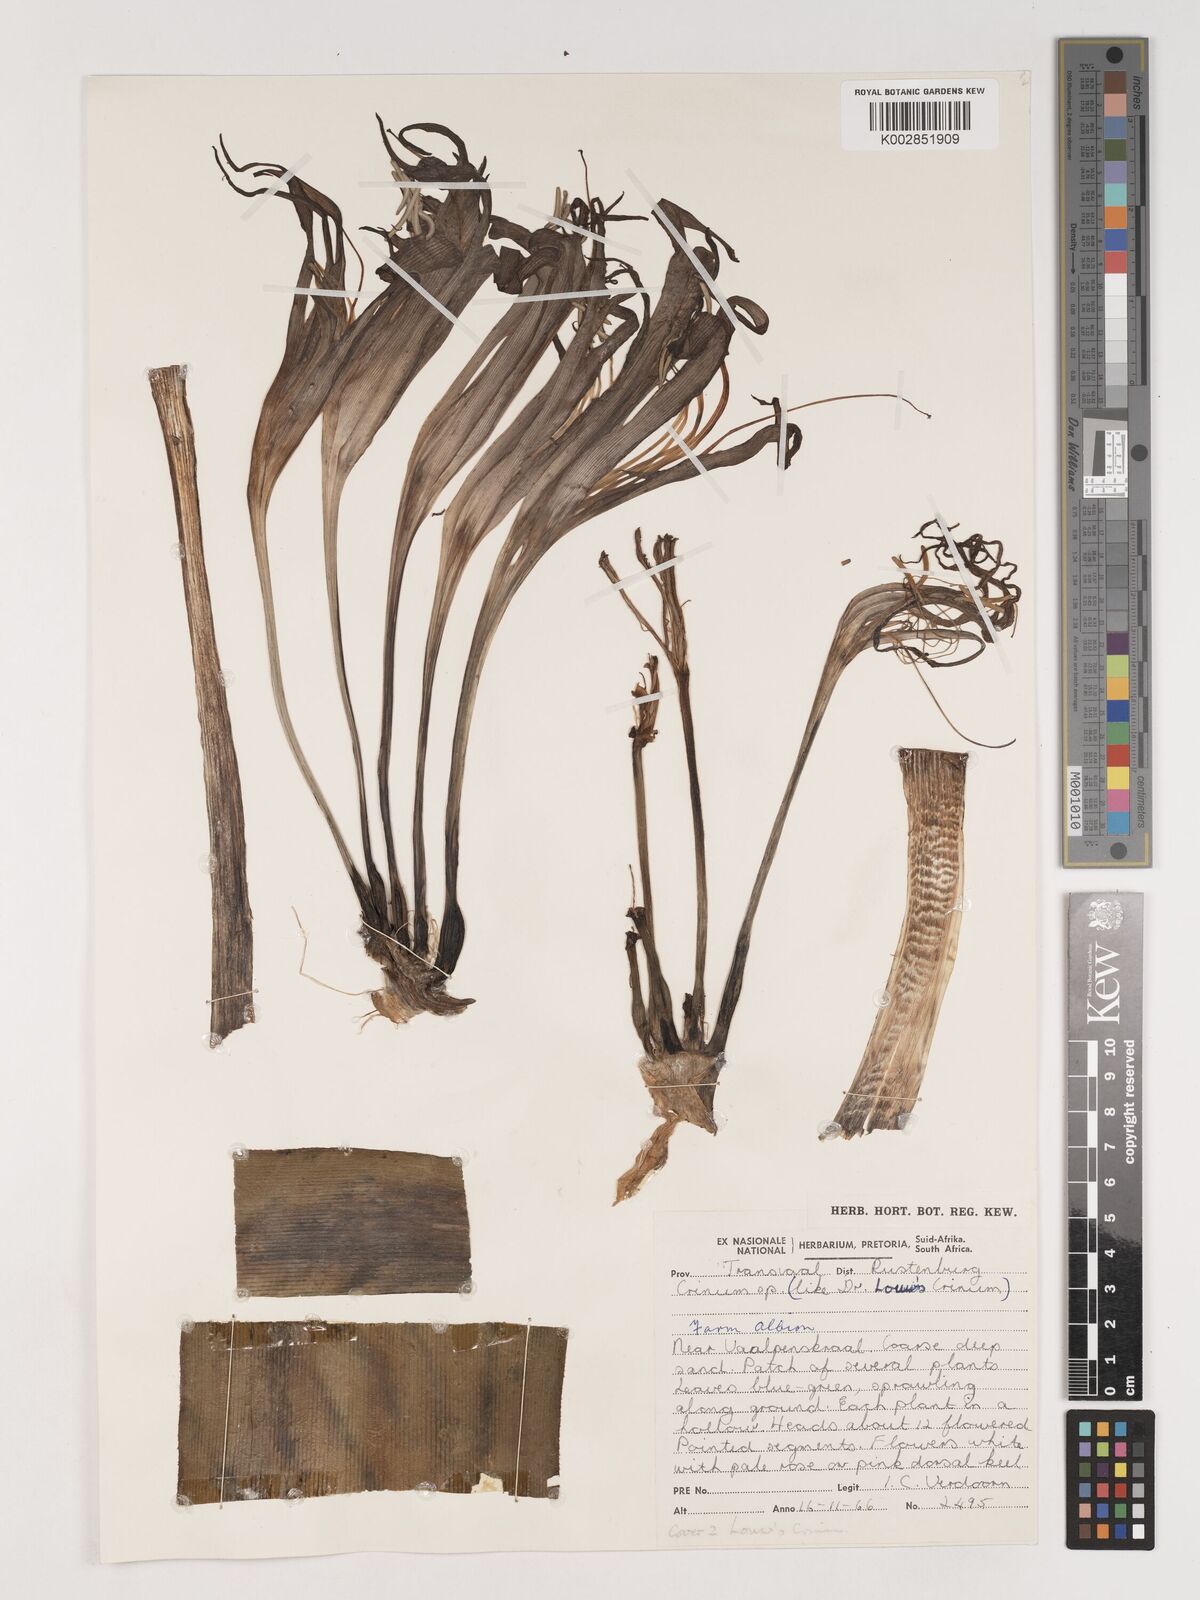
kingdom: Plantae
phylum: Tracheophyta
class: Liliopsida
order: Asparagales
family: Amaryllidaceae
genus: Crinum
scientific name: Crinum
